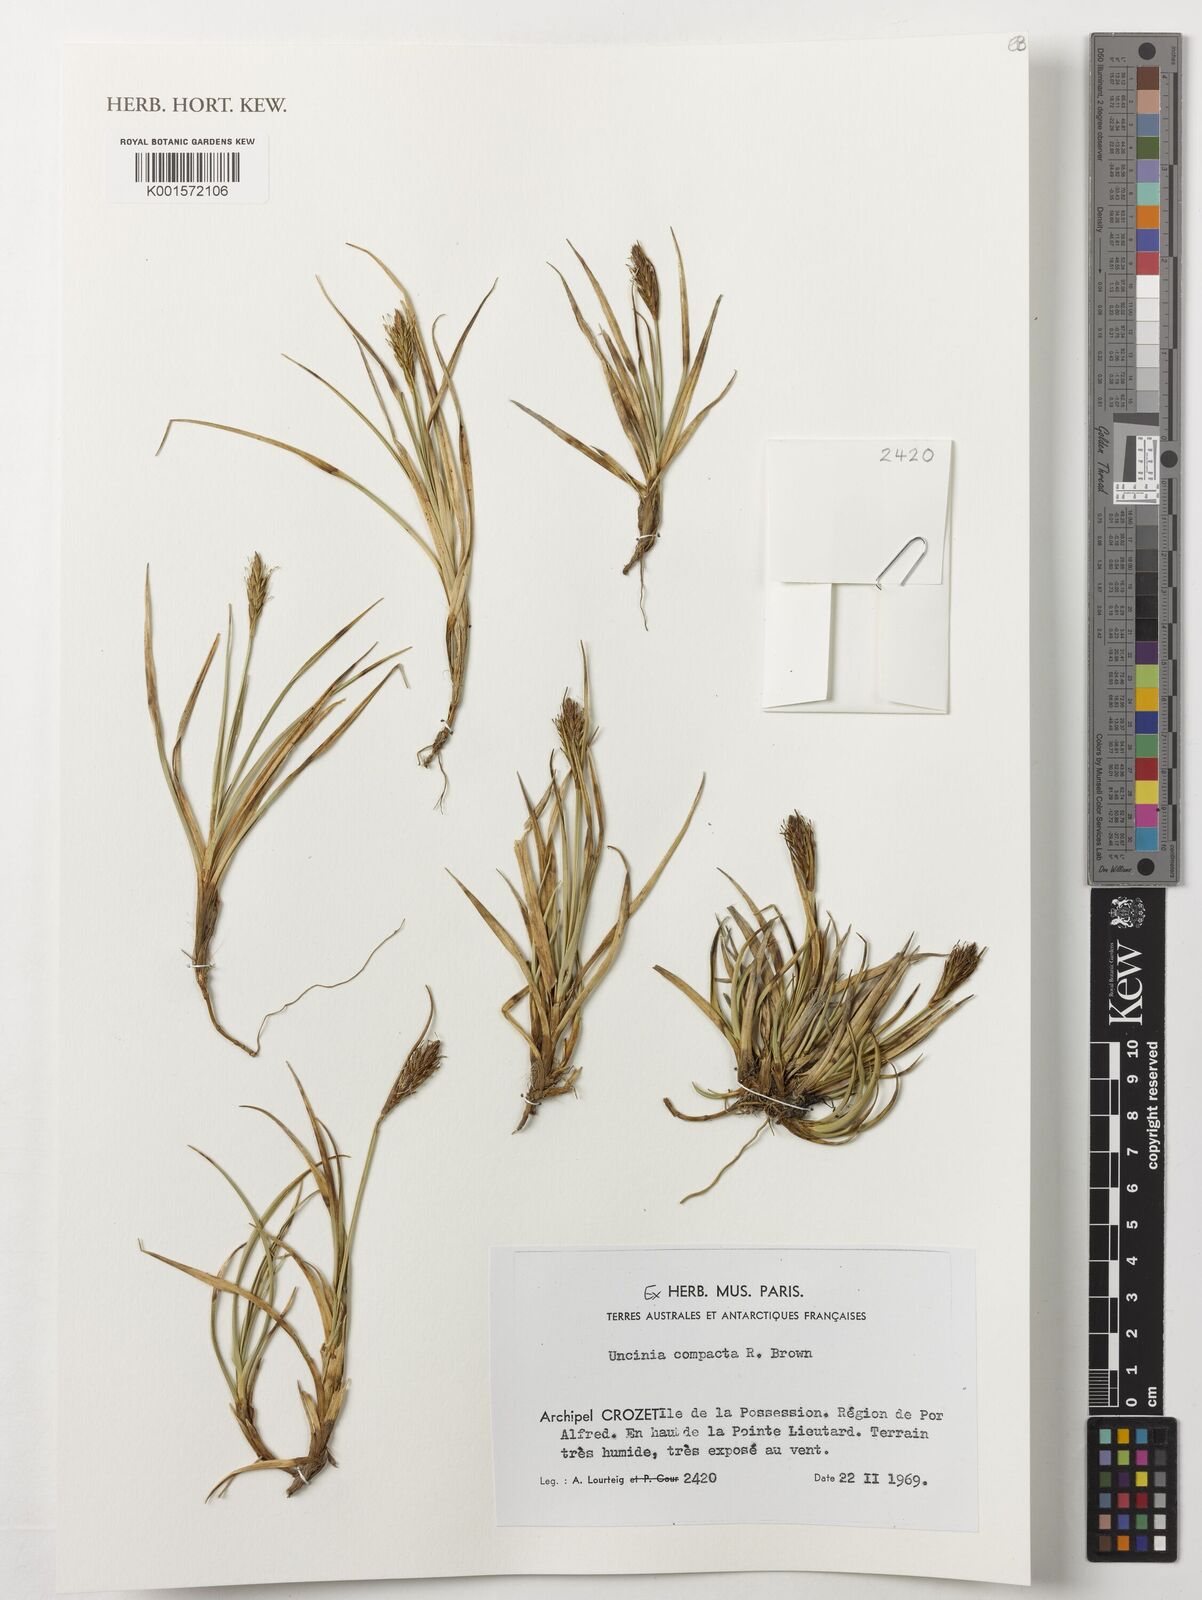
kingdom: Plantae
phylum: Tracheophyta
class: Liliopsida
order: Poales
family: Cyperaceae
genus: Carex
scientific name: Carex austrocompacta
